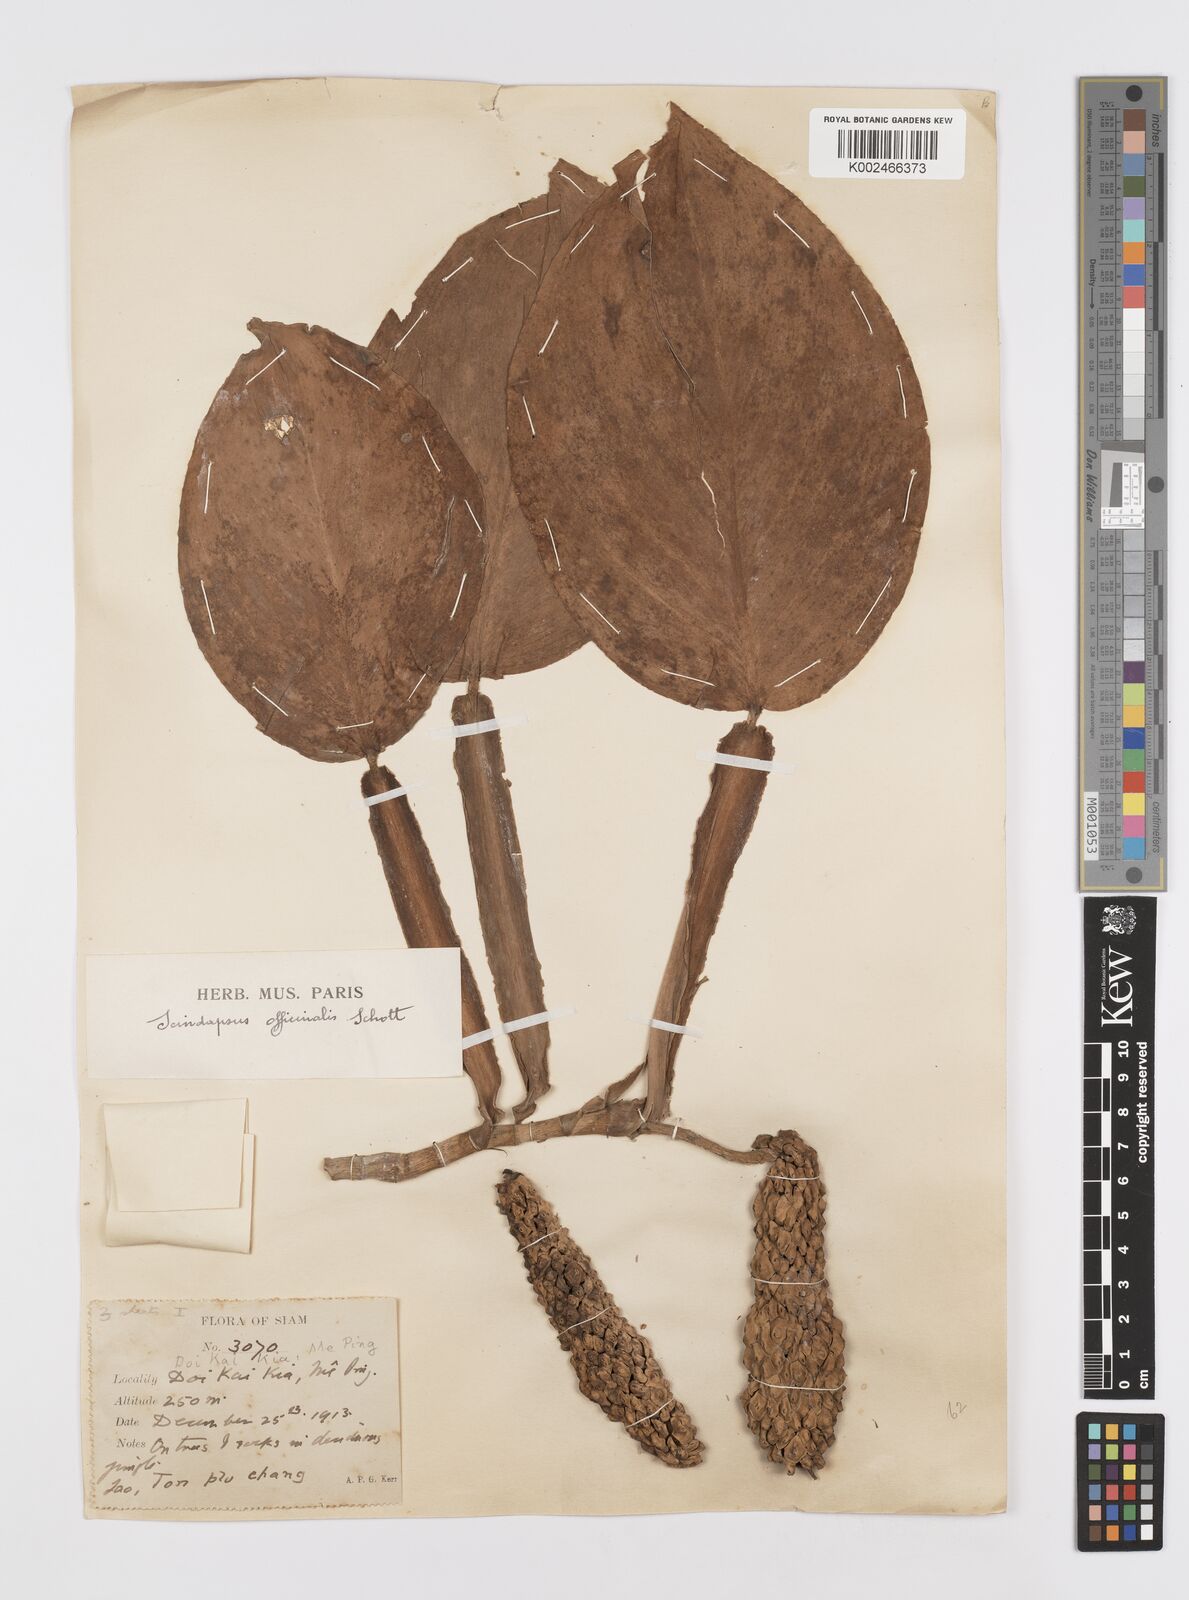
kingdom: Plantae
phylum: Tracheophyta
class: Liliopsida
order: Alismatales
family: Araceae
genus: Scindapsus
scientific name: Scindapsus officinalis
